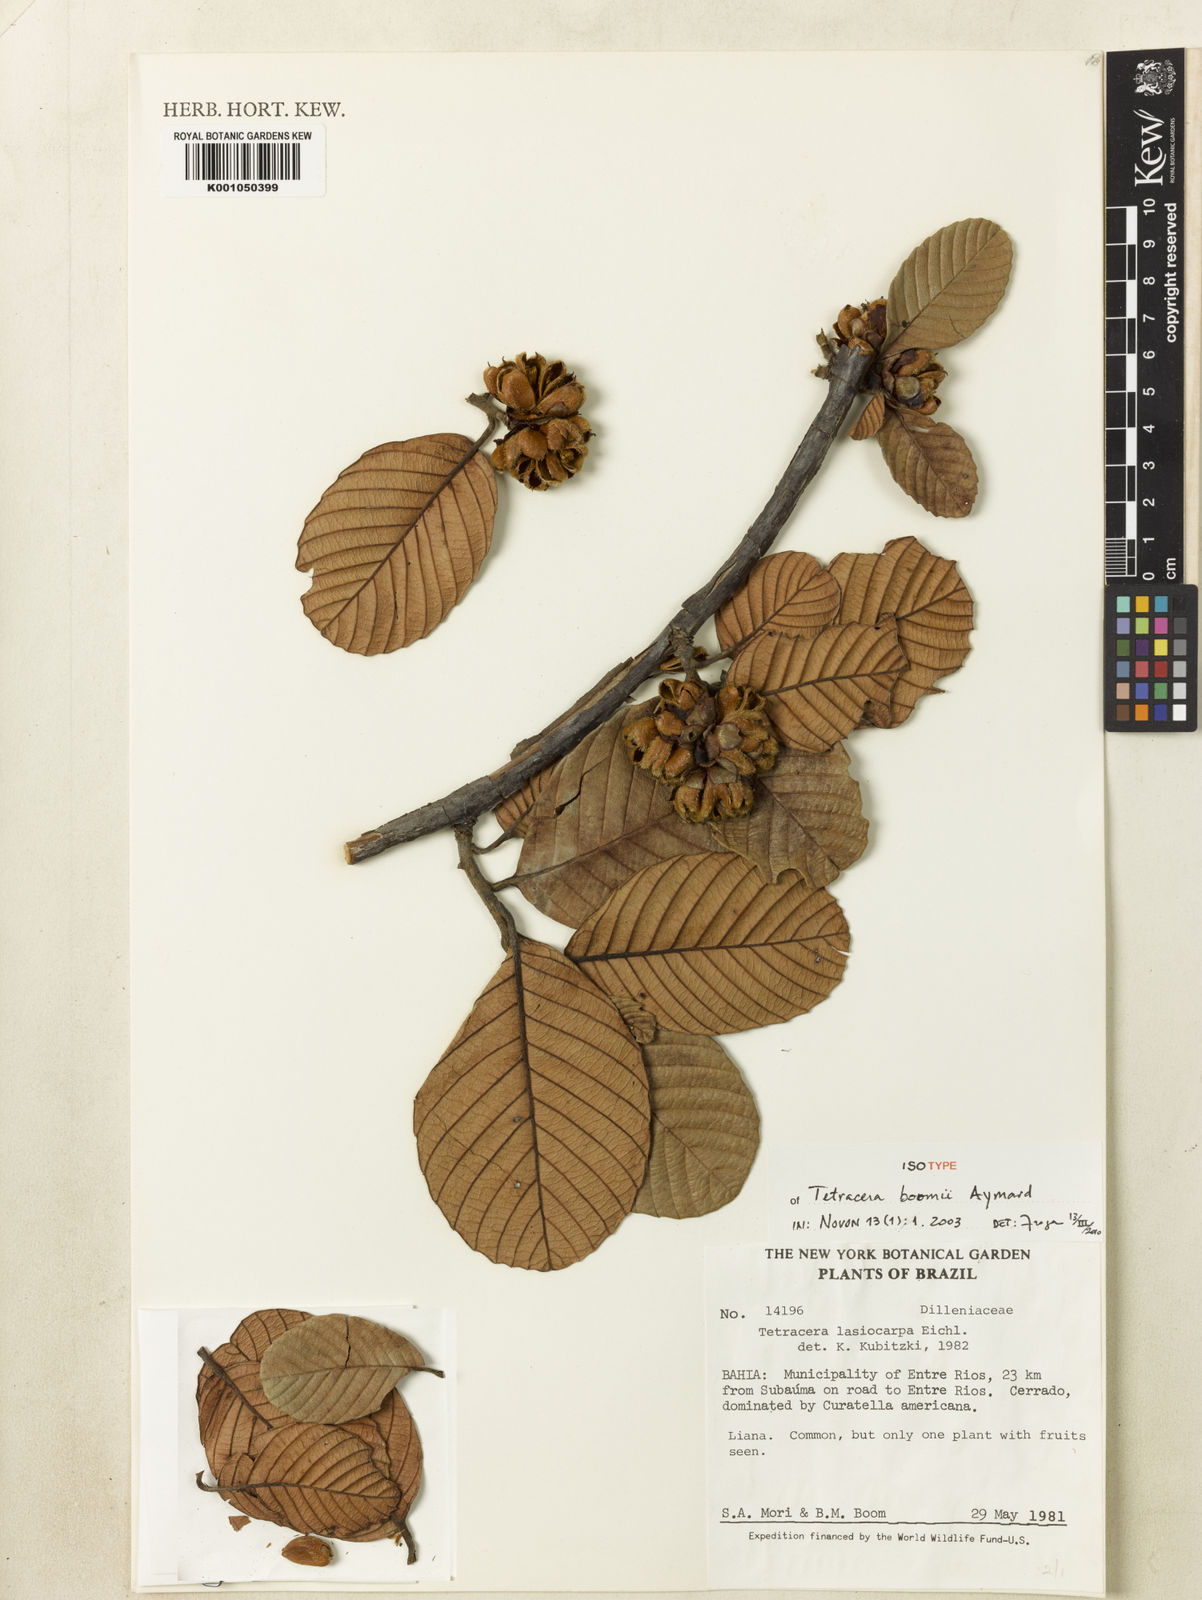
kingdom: Plantae
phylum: Tracheophyta
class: Magnoliopsida
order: Dilleniales
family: Dilleniaceae
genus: Tetracera
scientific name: Tetracera boomii
